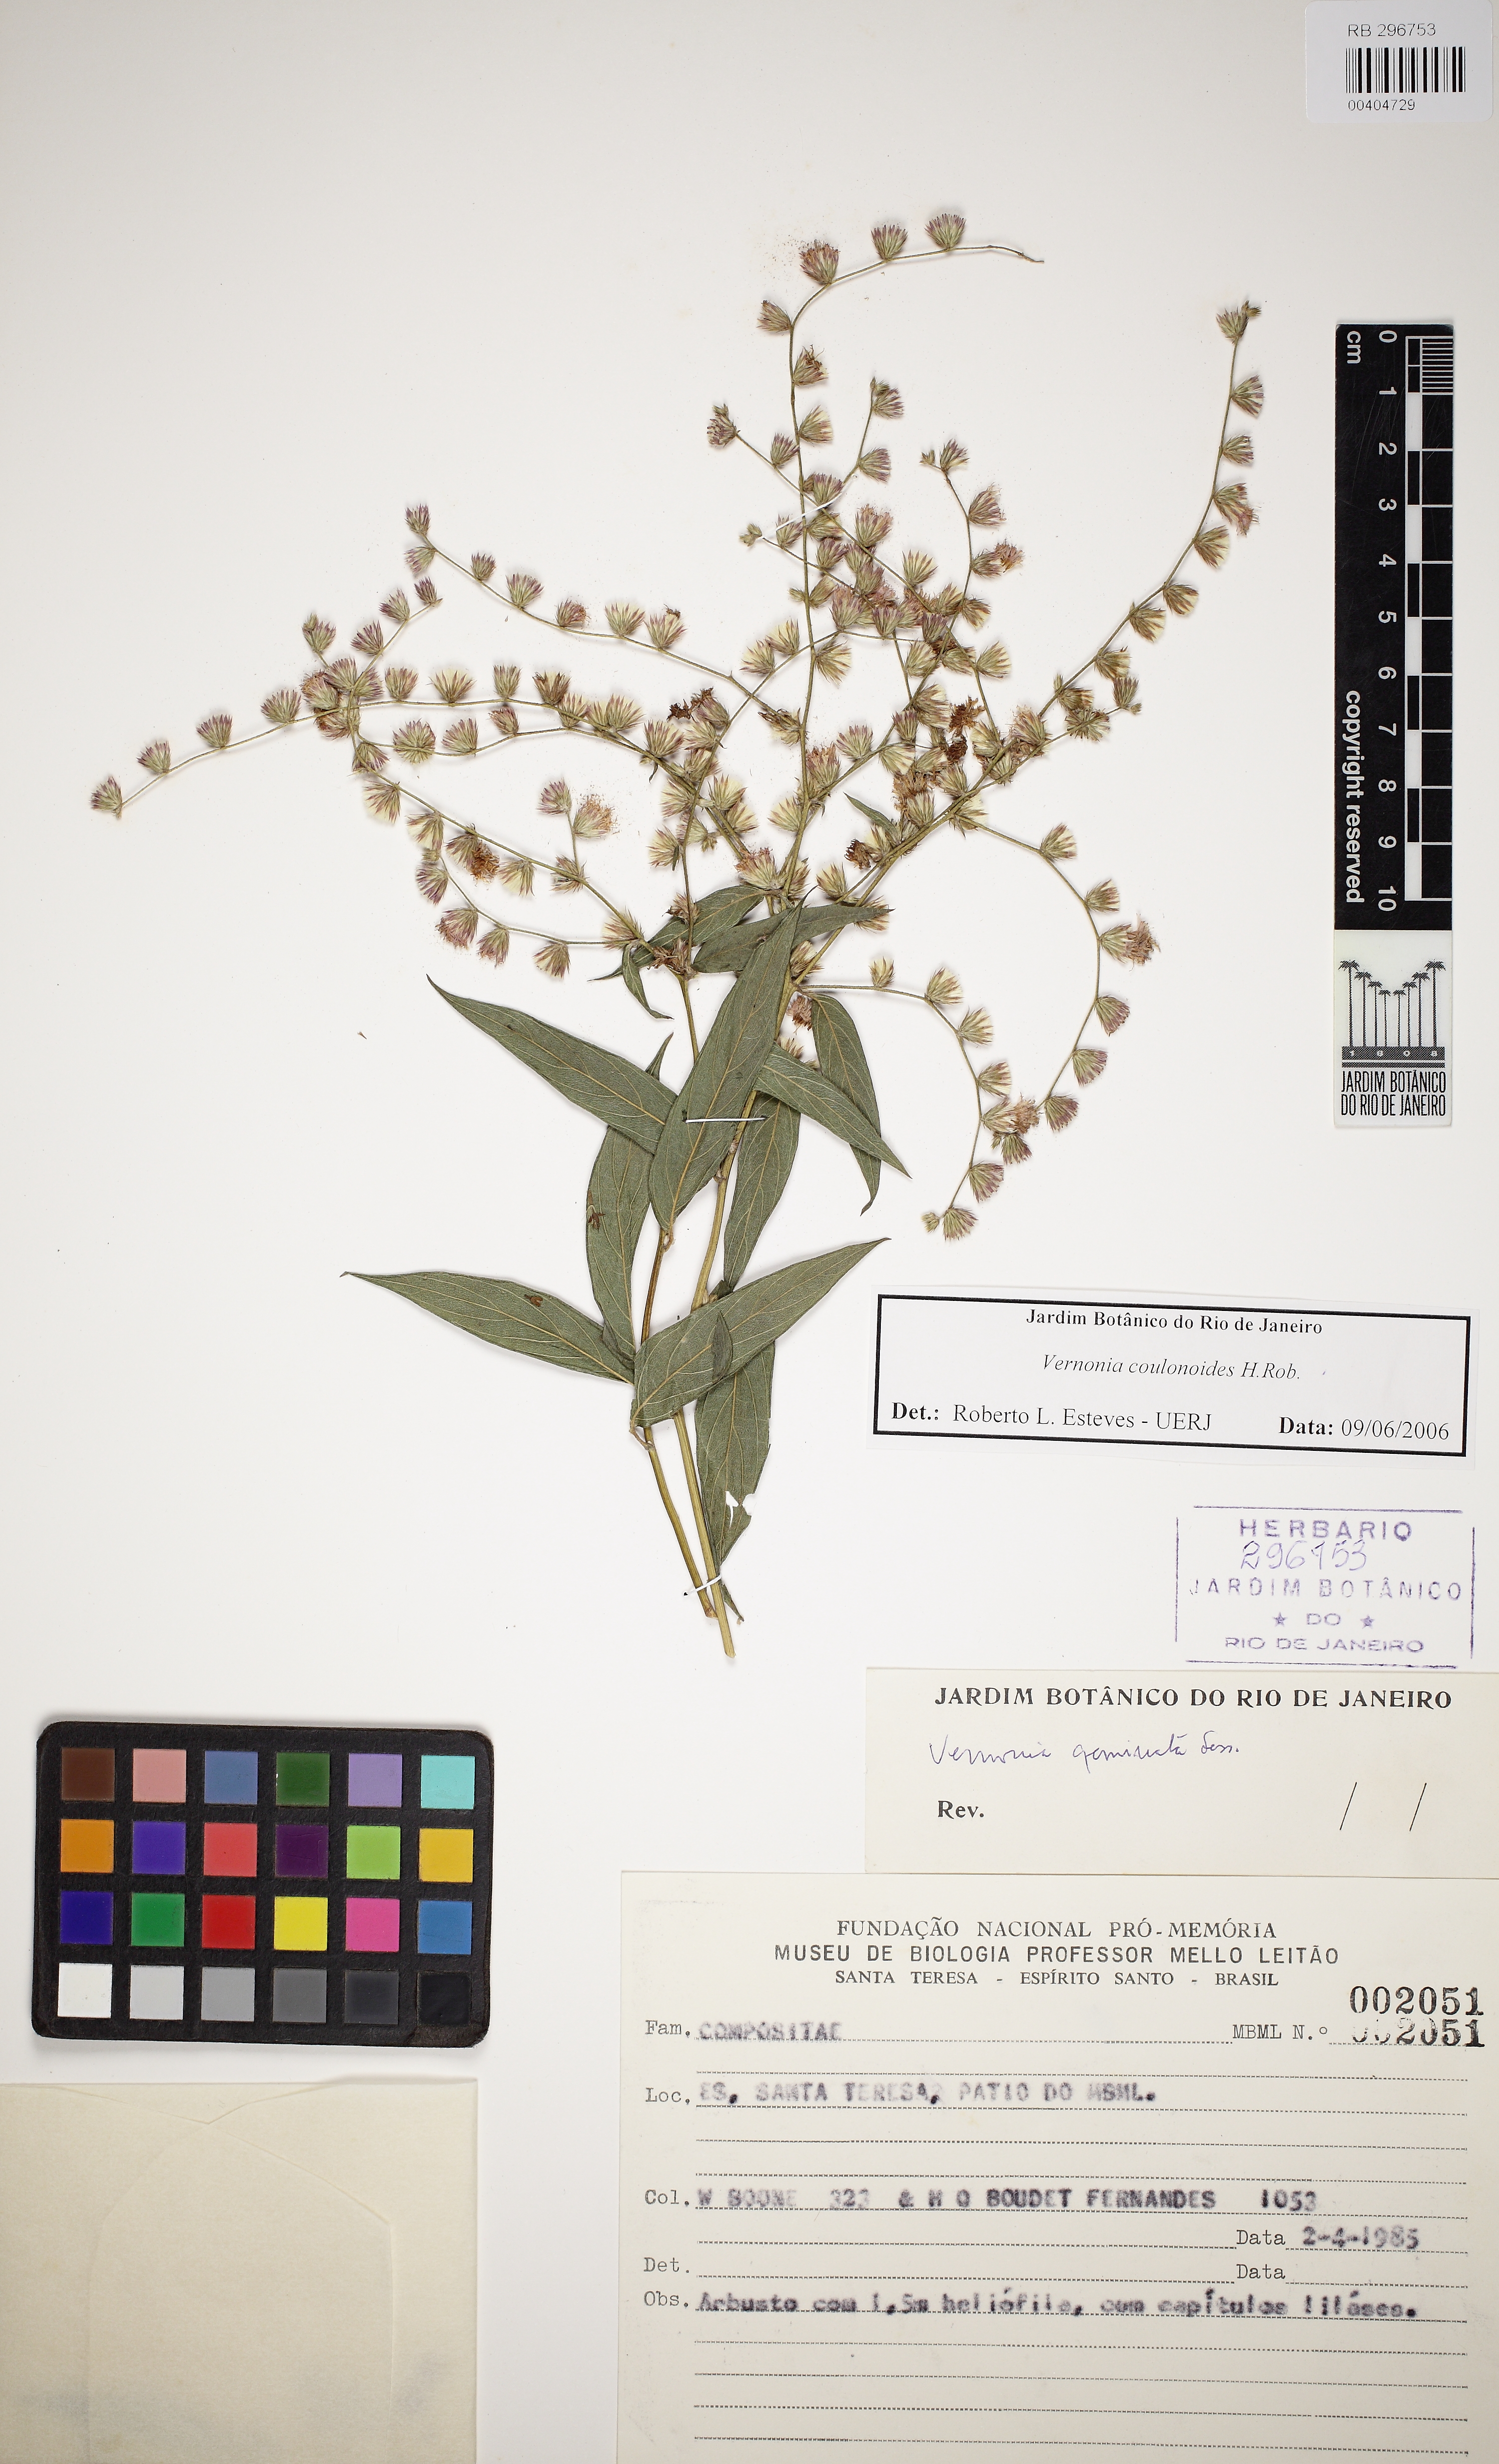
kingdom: Plantae
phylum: Tracheophyta
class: Magnoliopsida
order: Asterales
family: Asteraceae
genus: Lepidaploa
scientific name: Lepidaploa coulonioides
